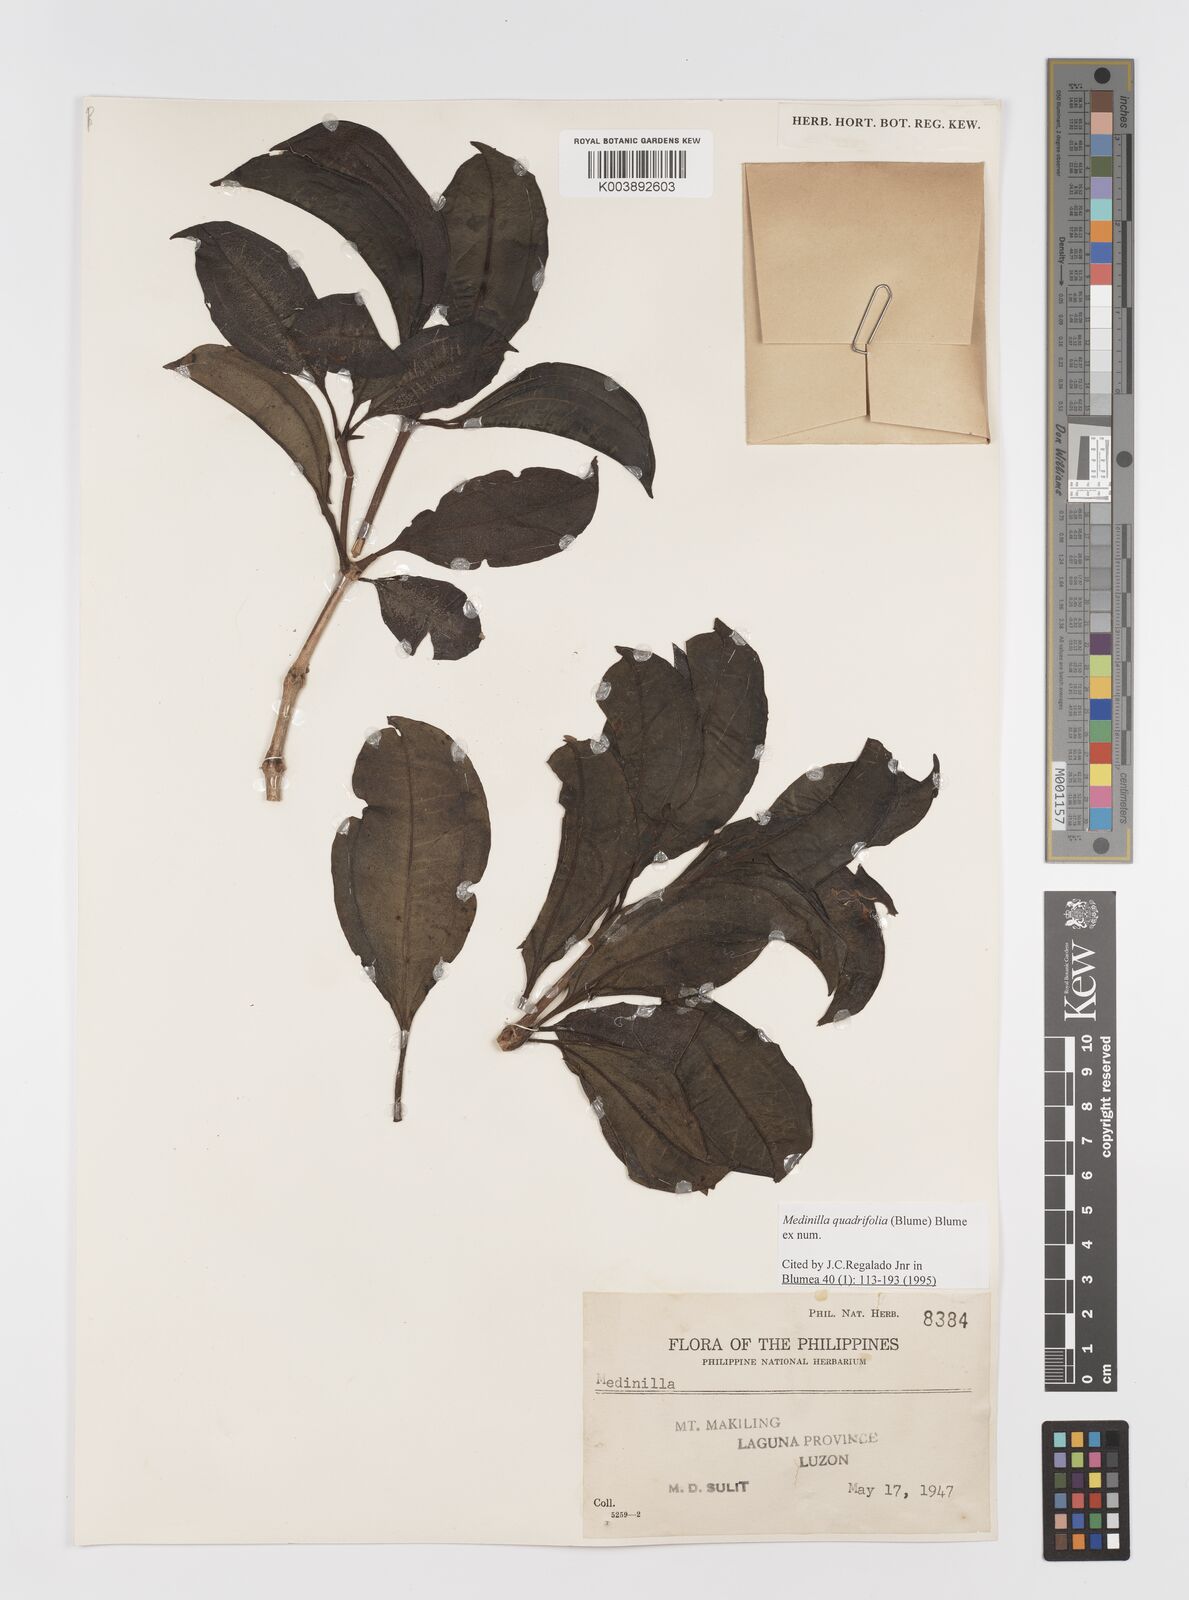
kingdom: Plantae
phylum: Tracheophyta
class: Magnoliopsida
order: Myrtales
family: Melastomataceae
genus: Medinilla
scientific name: Medinilla quadrifolia
